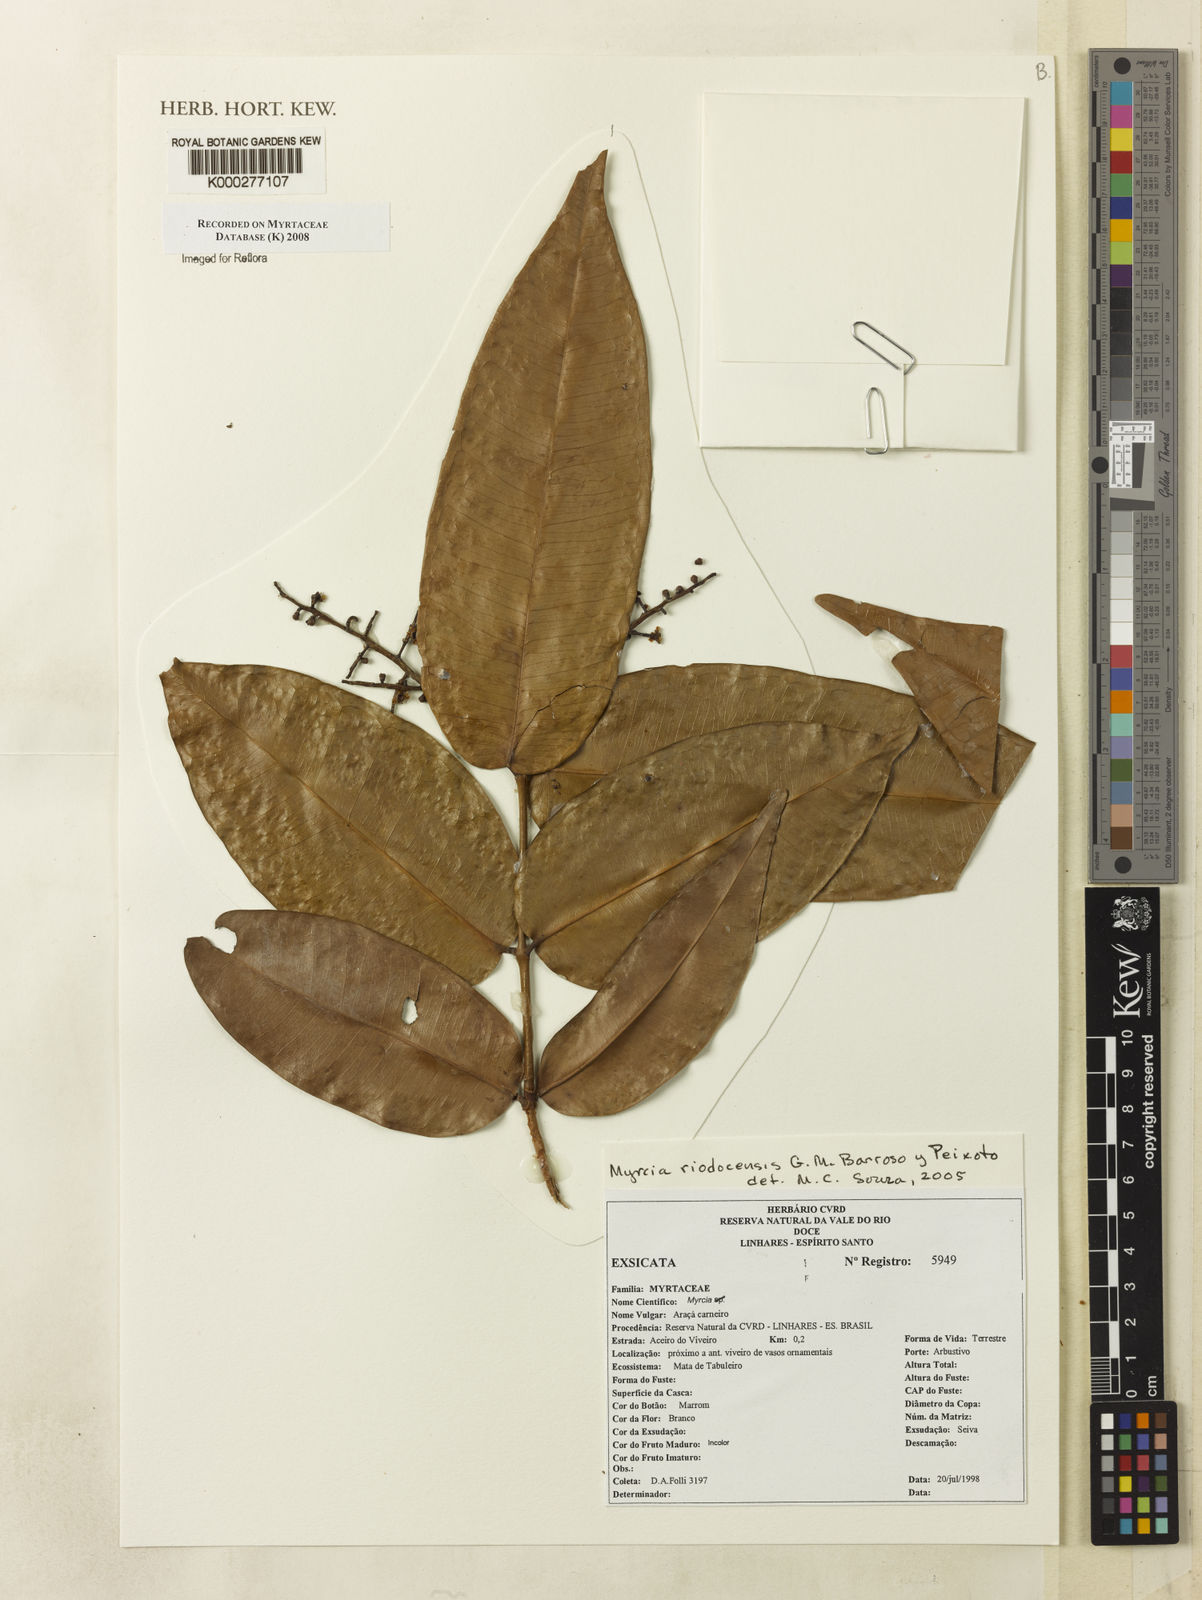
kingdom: Plantae
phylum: Tracheophyta
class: Magnoliopsida
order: Myrtales
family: Myrtaceae
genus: Myrcia
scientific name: Myrcia riodocensis
